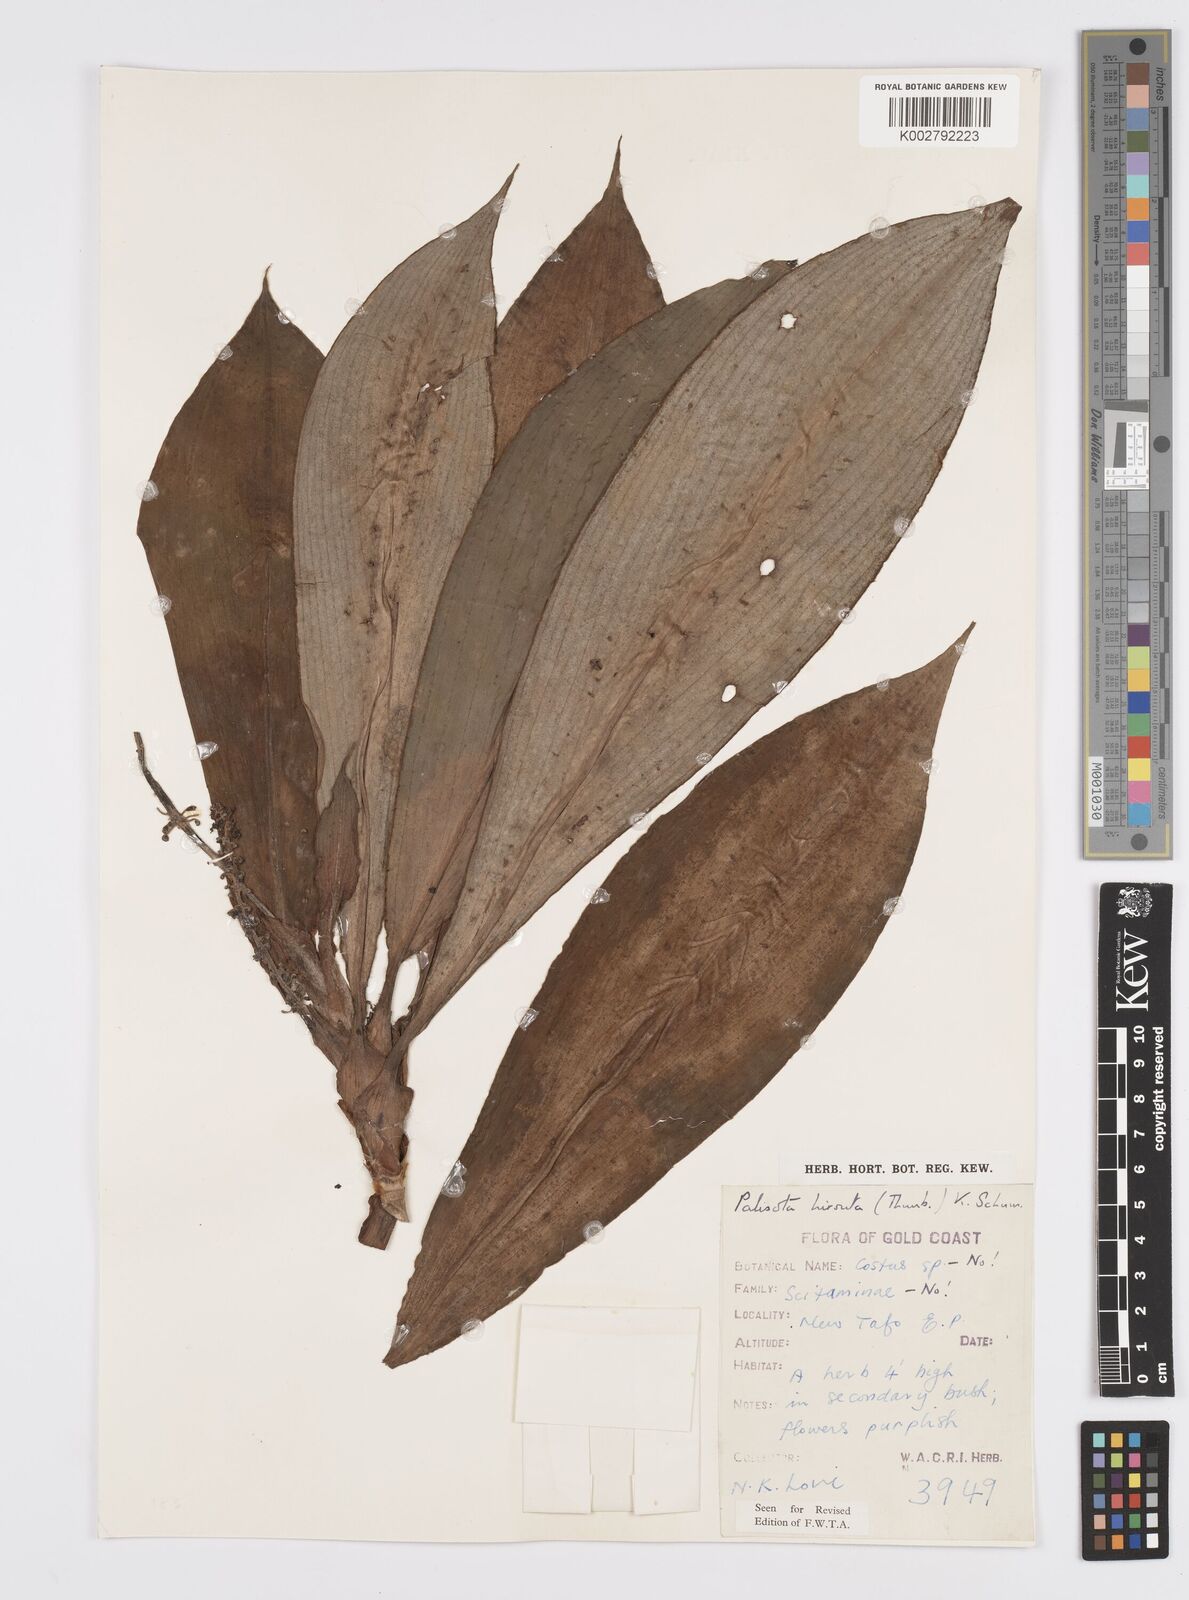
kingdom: Plantae
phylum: Tracheophyta
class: Liliopsida
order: Commelinales
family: Commelinaceae
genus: Palisota
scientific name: Palisota hirsuta
